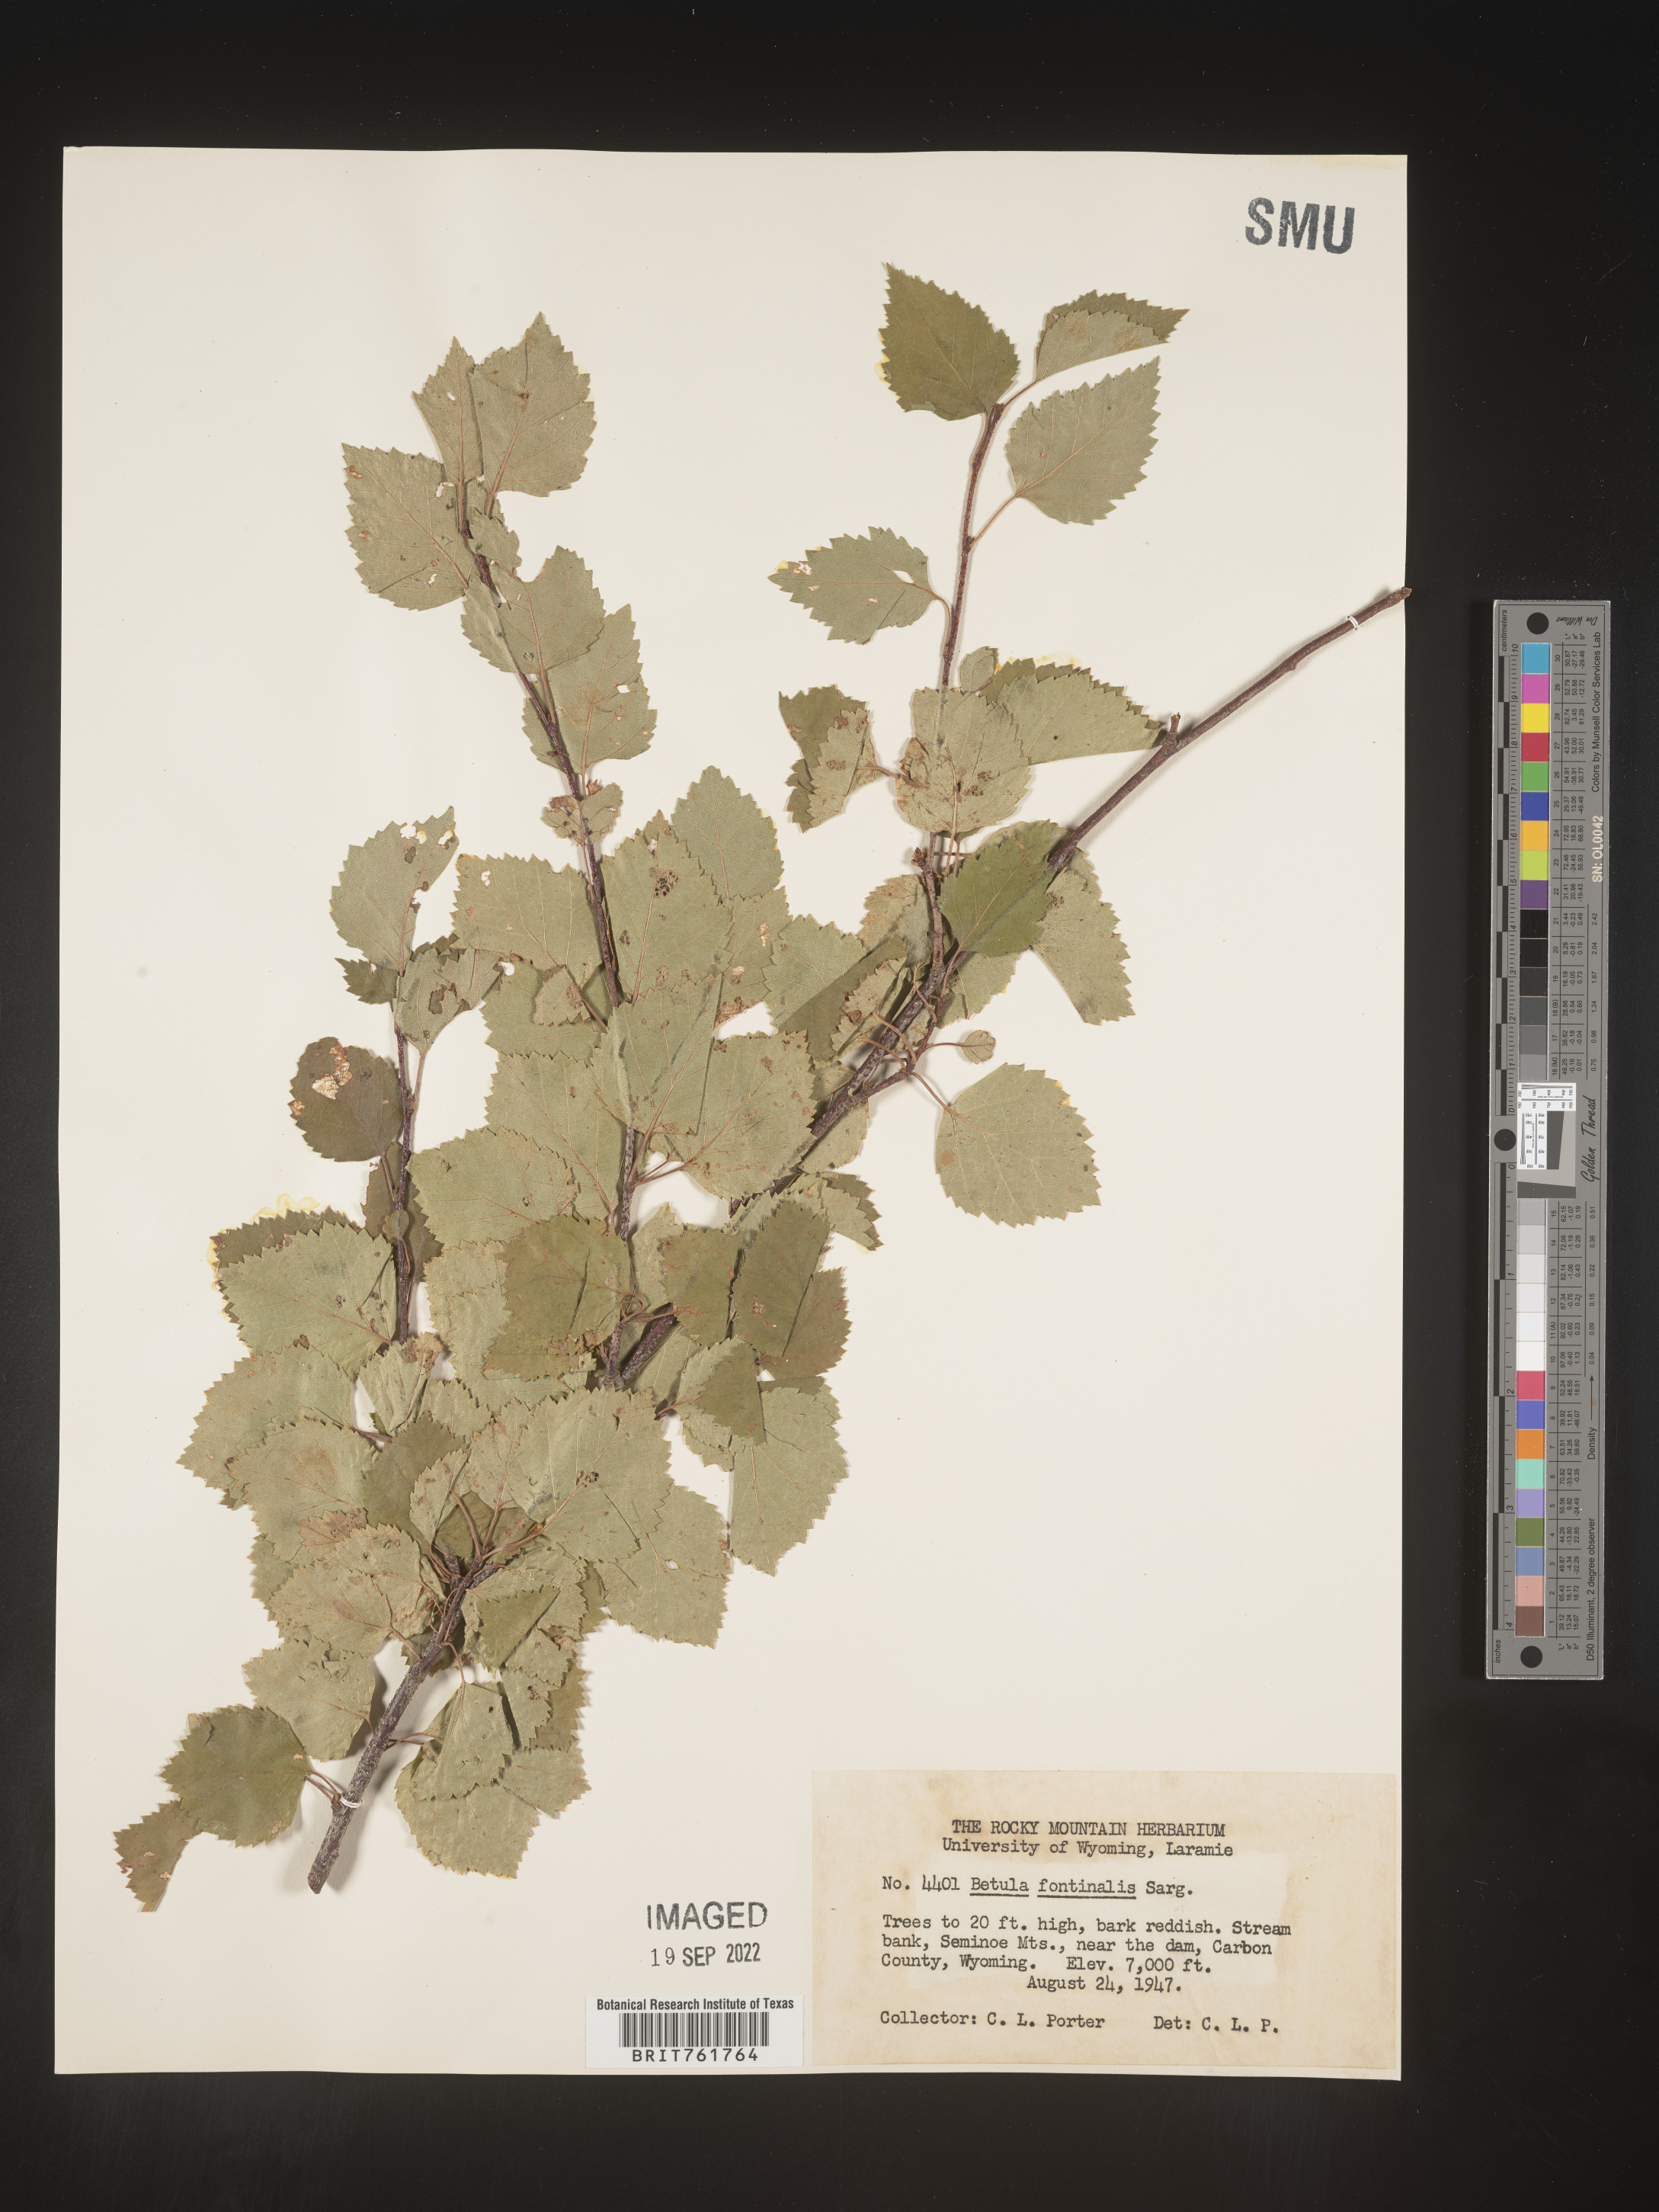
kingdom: Plantae
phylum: Tracheophyta
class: Magnoliopsida
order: Fagales
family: Betulaceae
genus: Betula
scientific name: Betula occidentalis
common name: River birch
